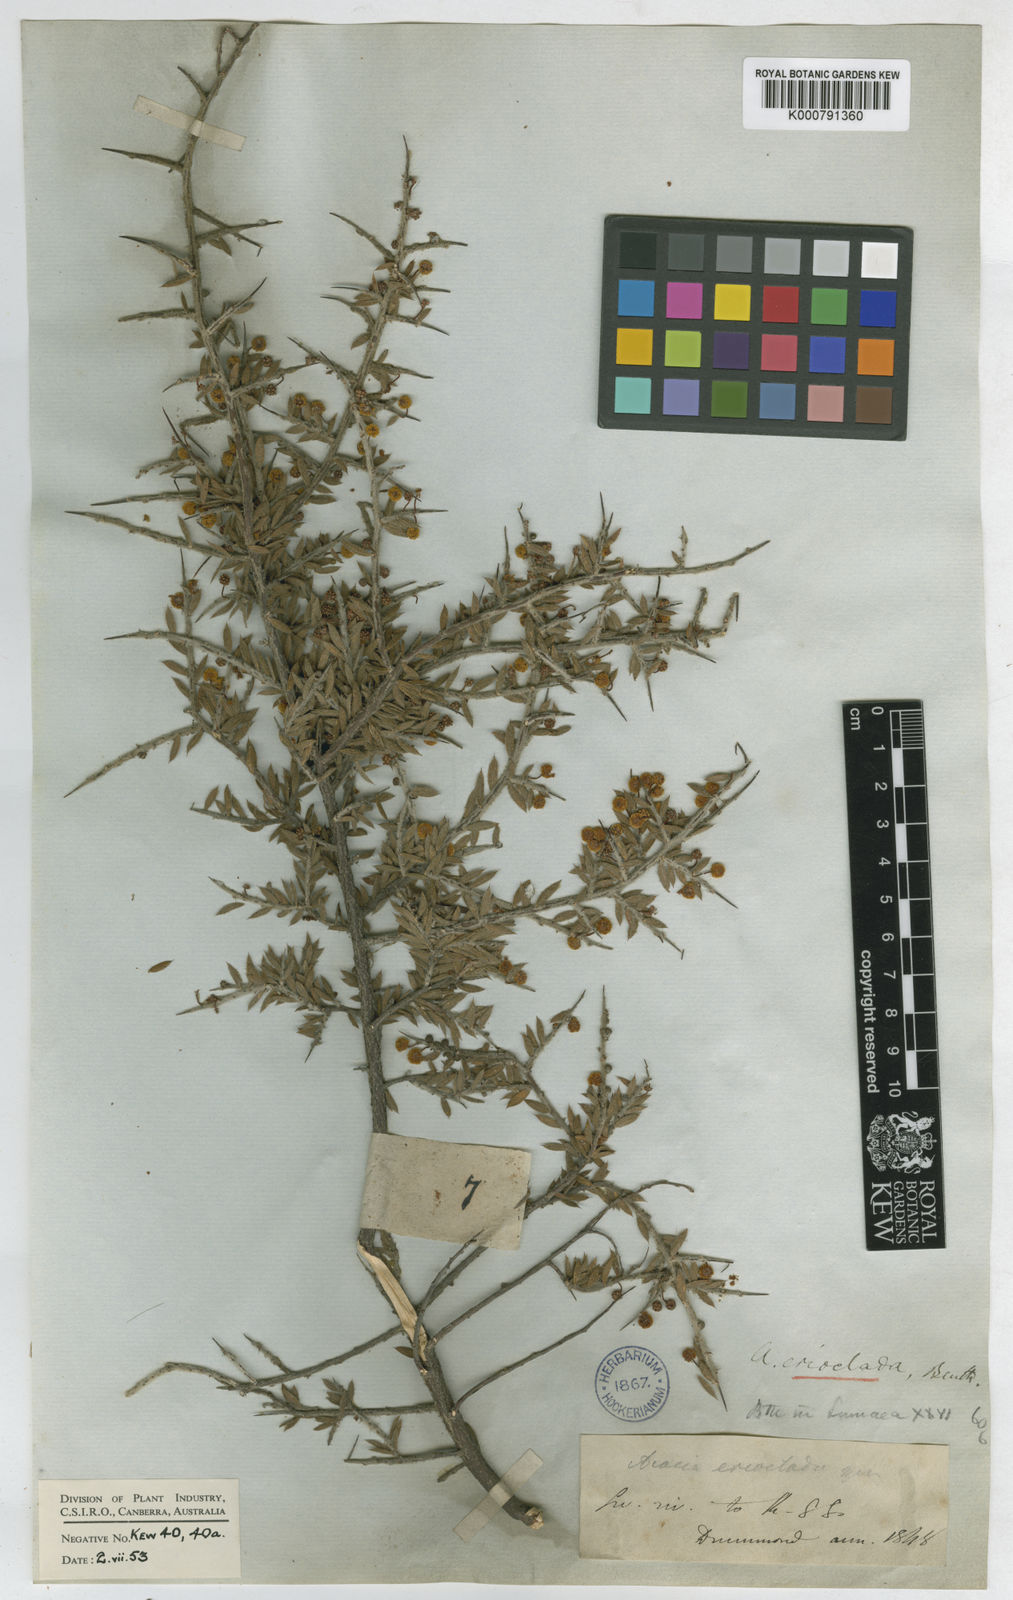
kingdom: Plantae
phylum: Tracheophyta
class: Magnoliopsida
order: Fabales
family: Fabaceae
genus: Acacia
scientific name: Acacia erioclada
